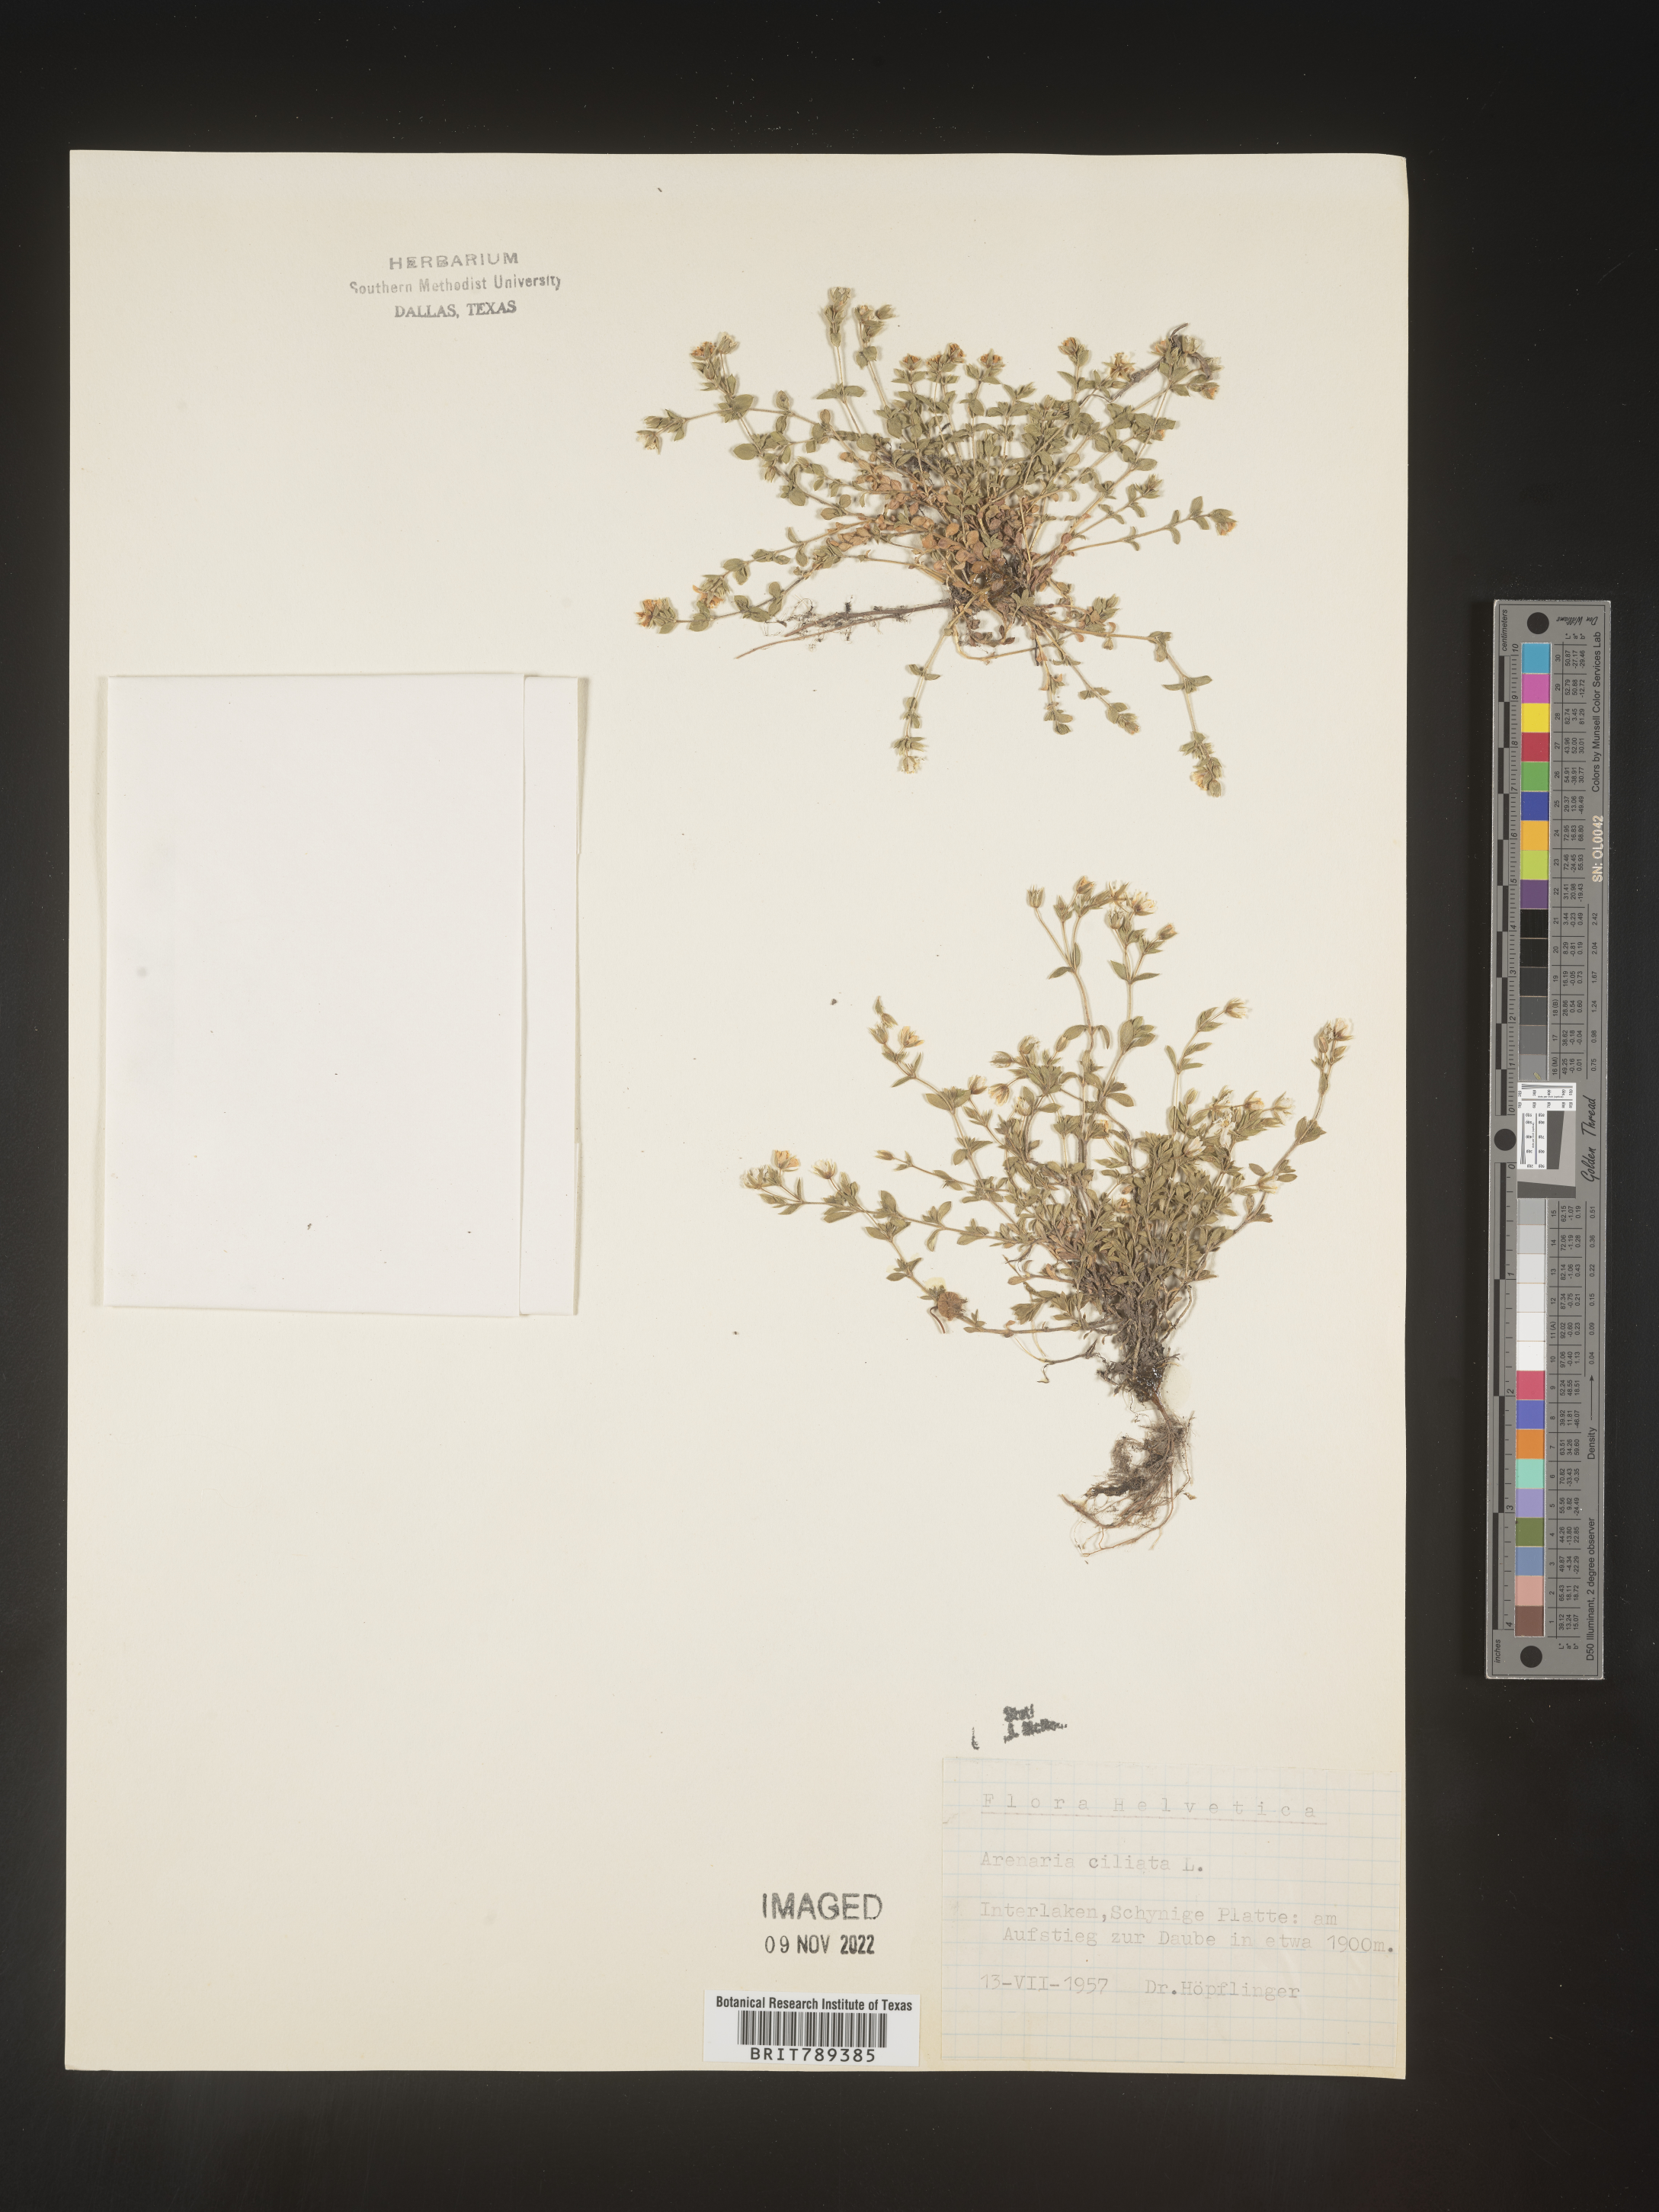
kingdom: Plantae
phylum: Tracheophyta
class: Magnoliopsida
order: Caryophyllales
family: Caryophyllaceae
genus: Arenaria
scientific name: Arenaria
